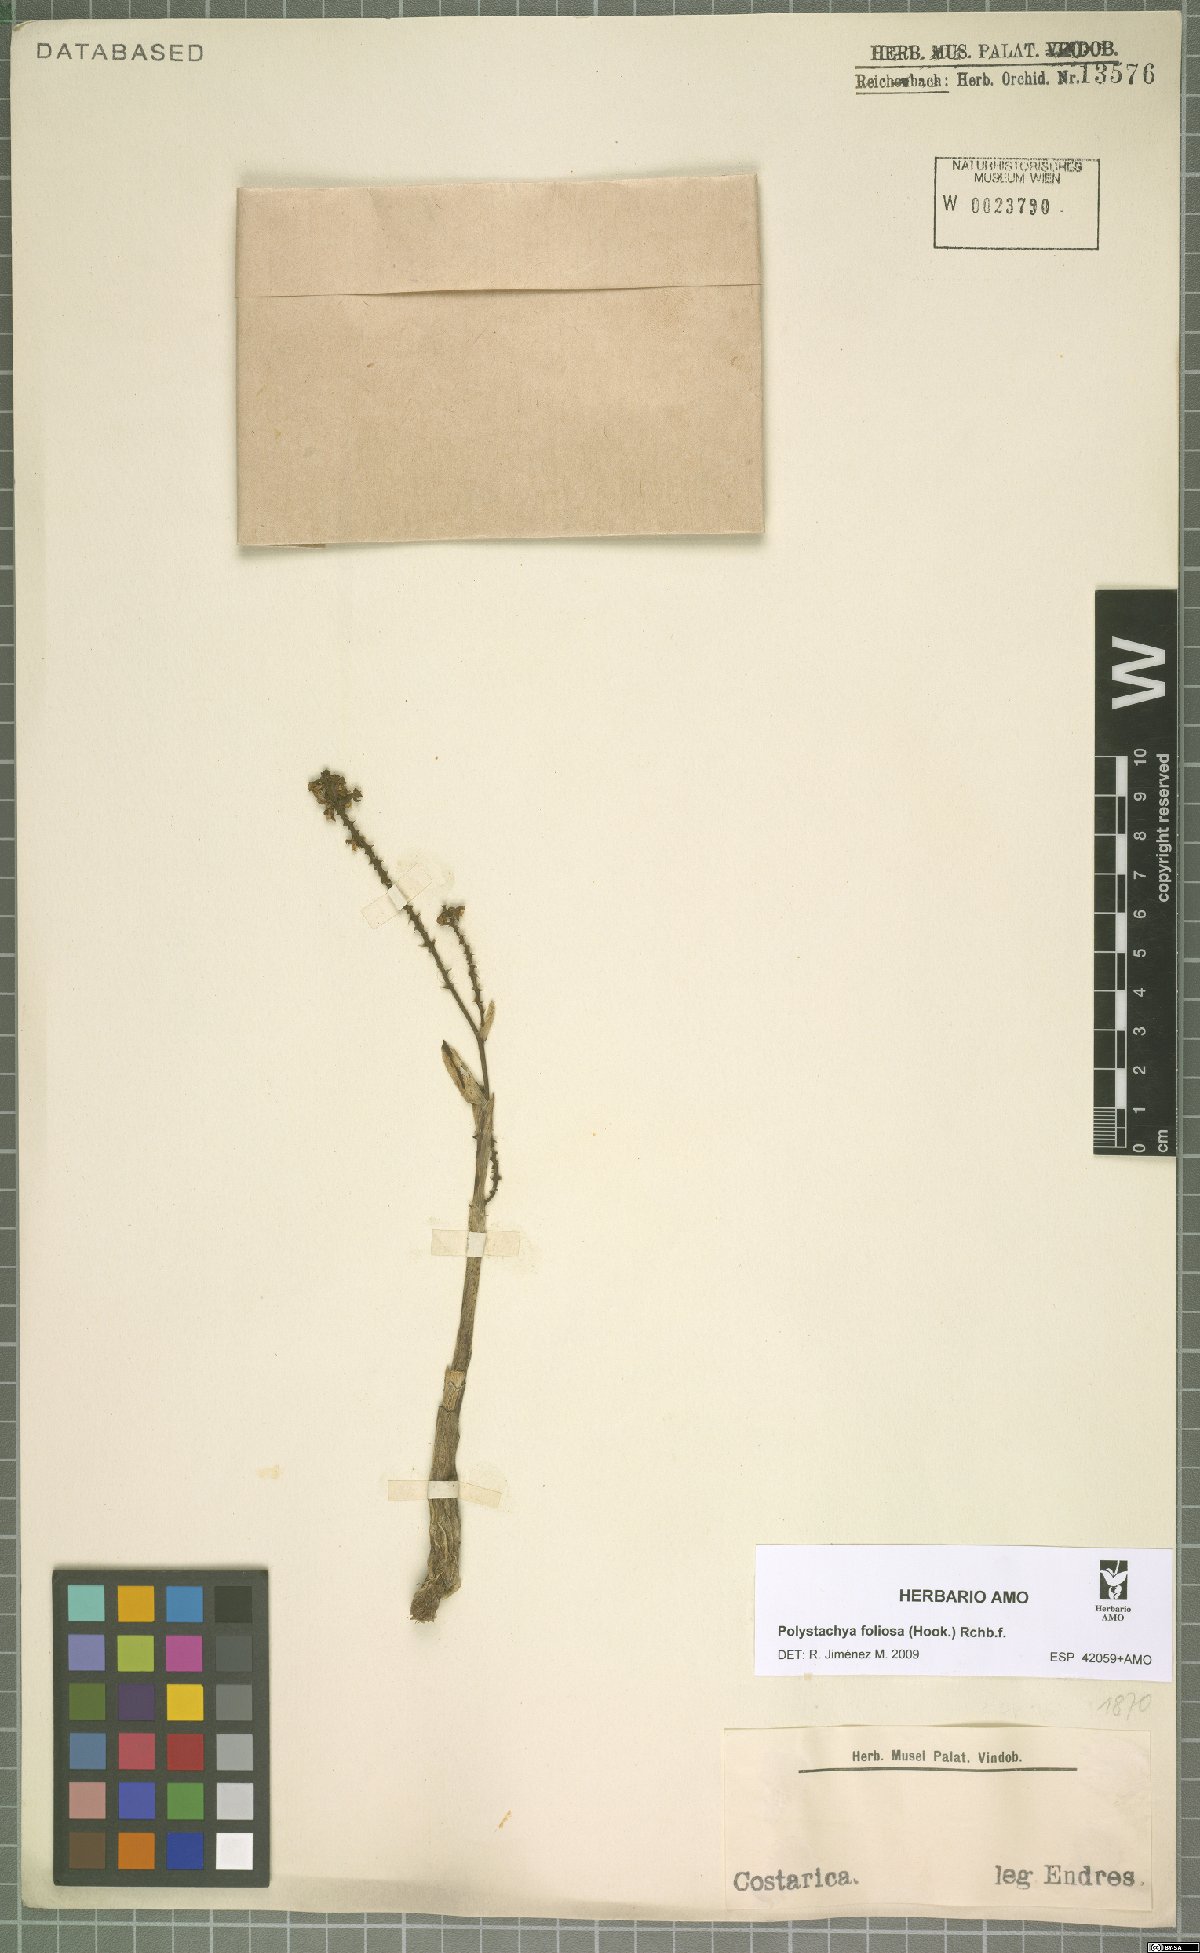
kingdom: Plantae
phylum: Tracheophyta
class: Liliopsida
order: Asparagales
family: Orchidaceae
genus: Polystachya
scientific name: Polystachya masayensis
